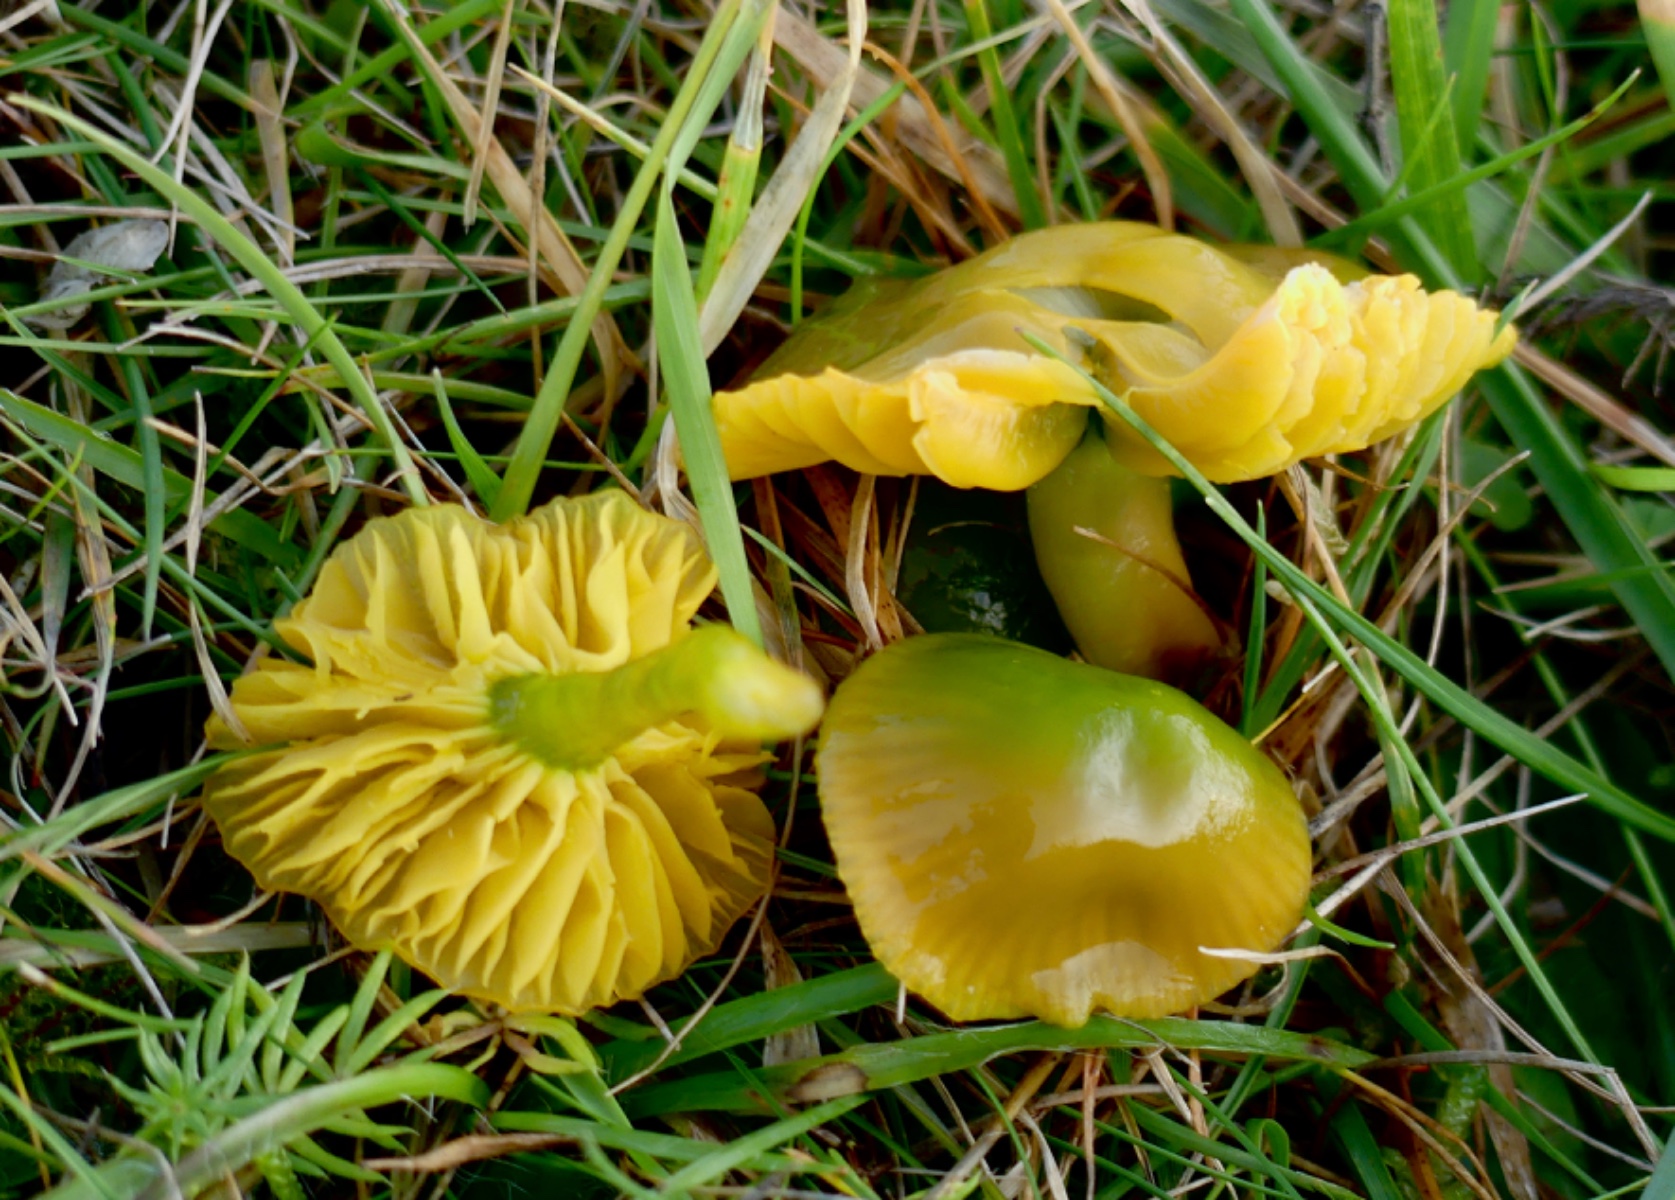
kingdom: Fungi
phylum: Basidiomycota
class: Agaricomycetes
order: Agaricales
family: Hygrophoraceae
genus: Gliophorus
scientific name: Gliophorus psittacinus
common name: papegøje-vokshat
